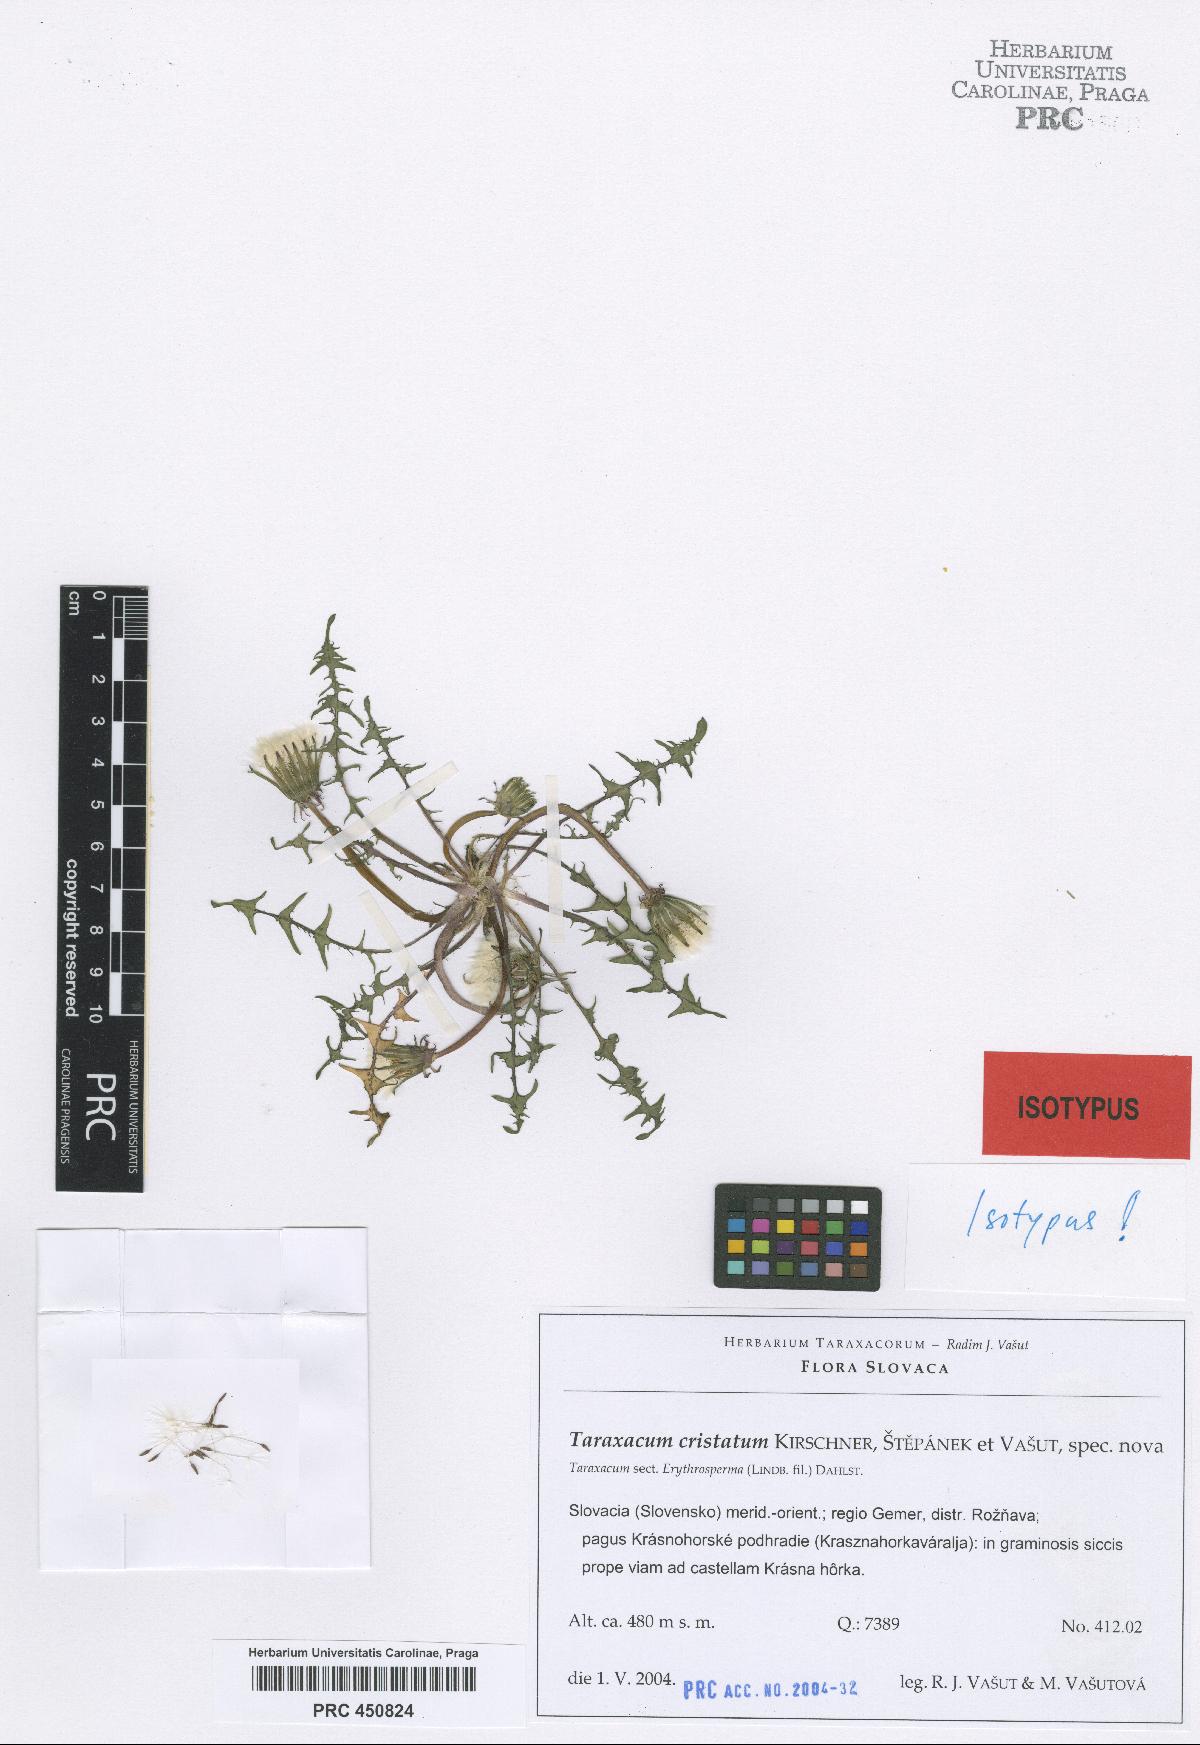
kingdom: Plantae
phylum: Tracheophyta
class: Magnoliopsida
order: Asterales
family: Asteraceae
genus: Taraxacum
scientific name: Taraxacum cristatum
